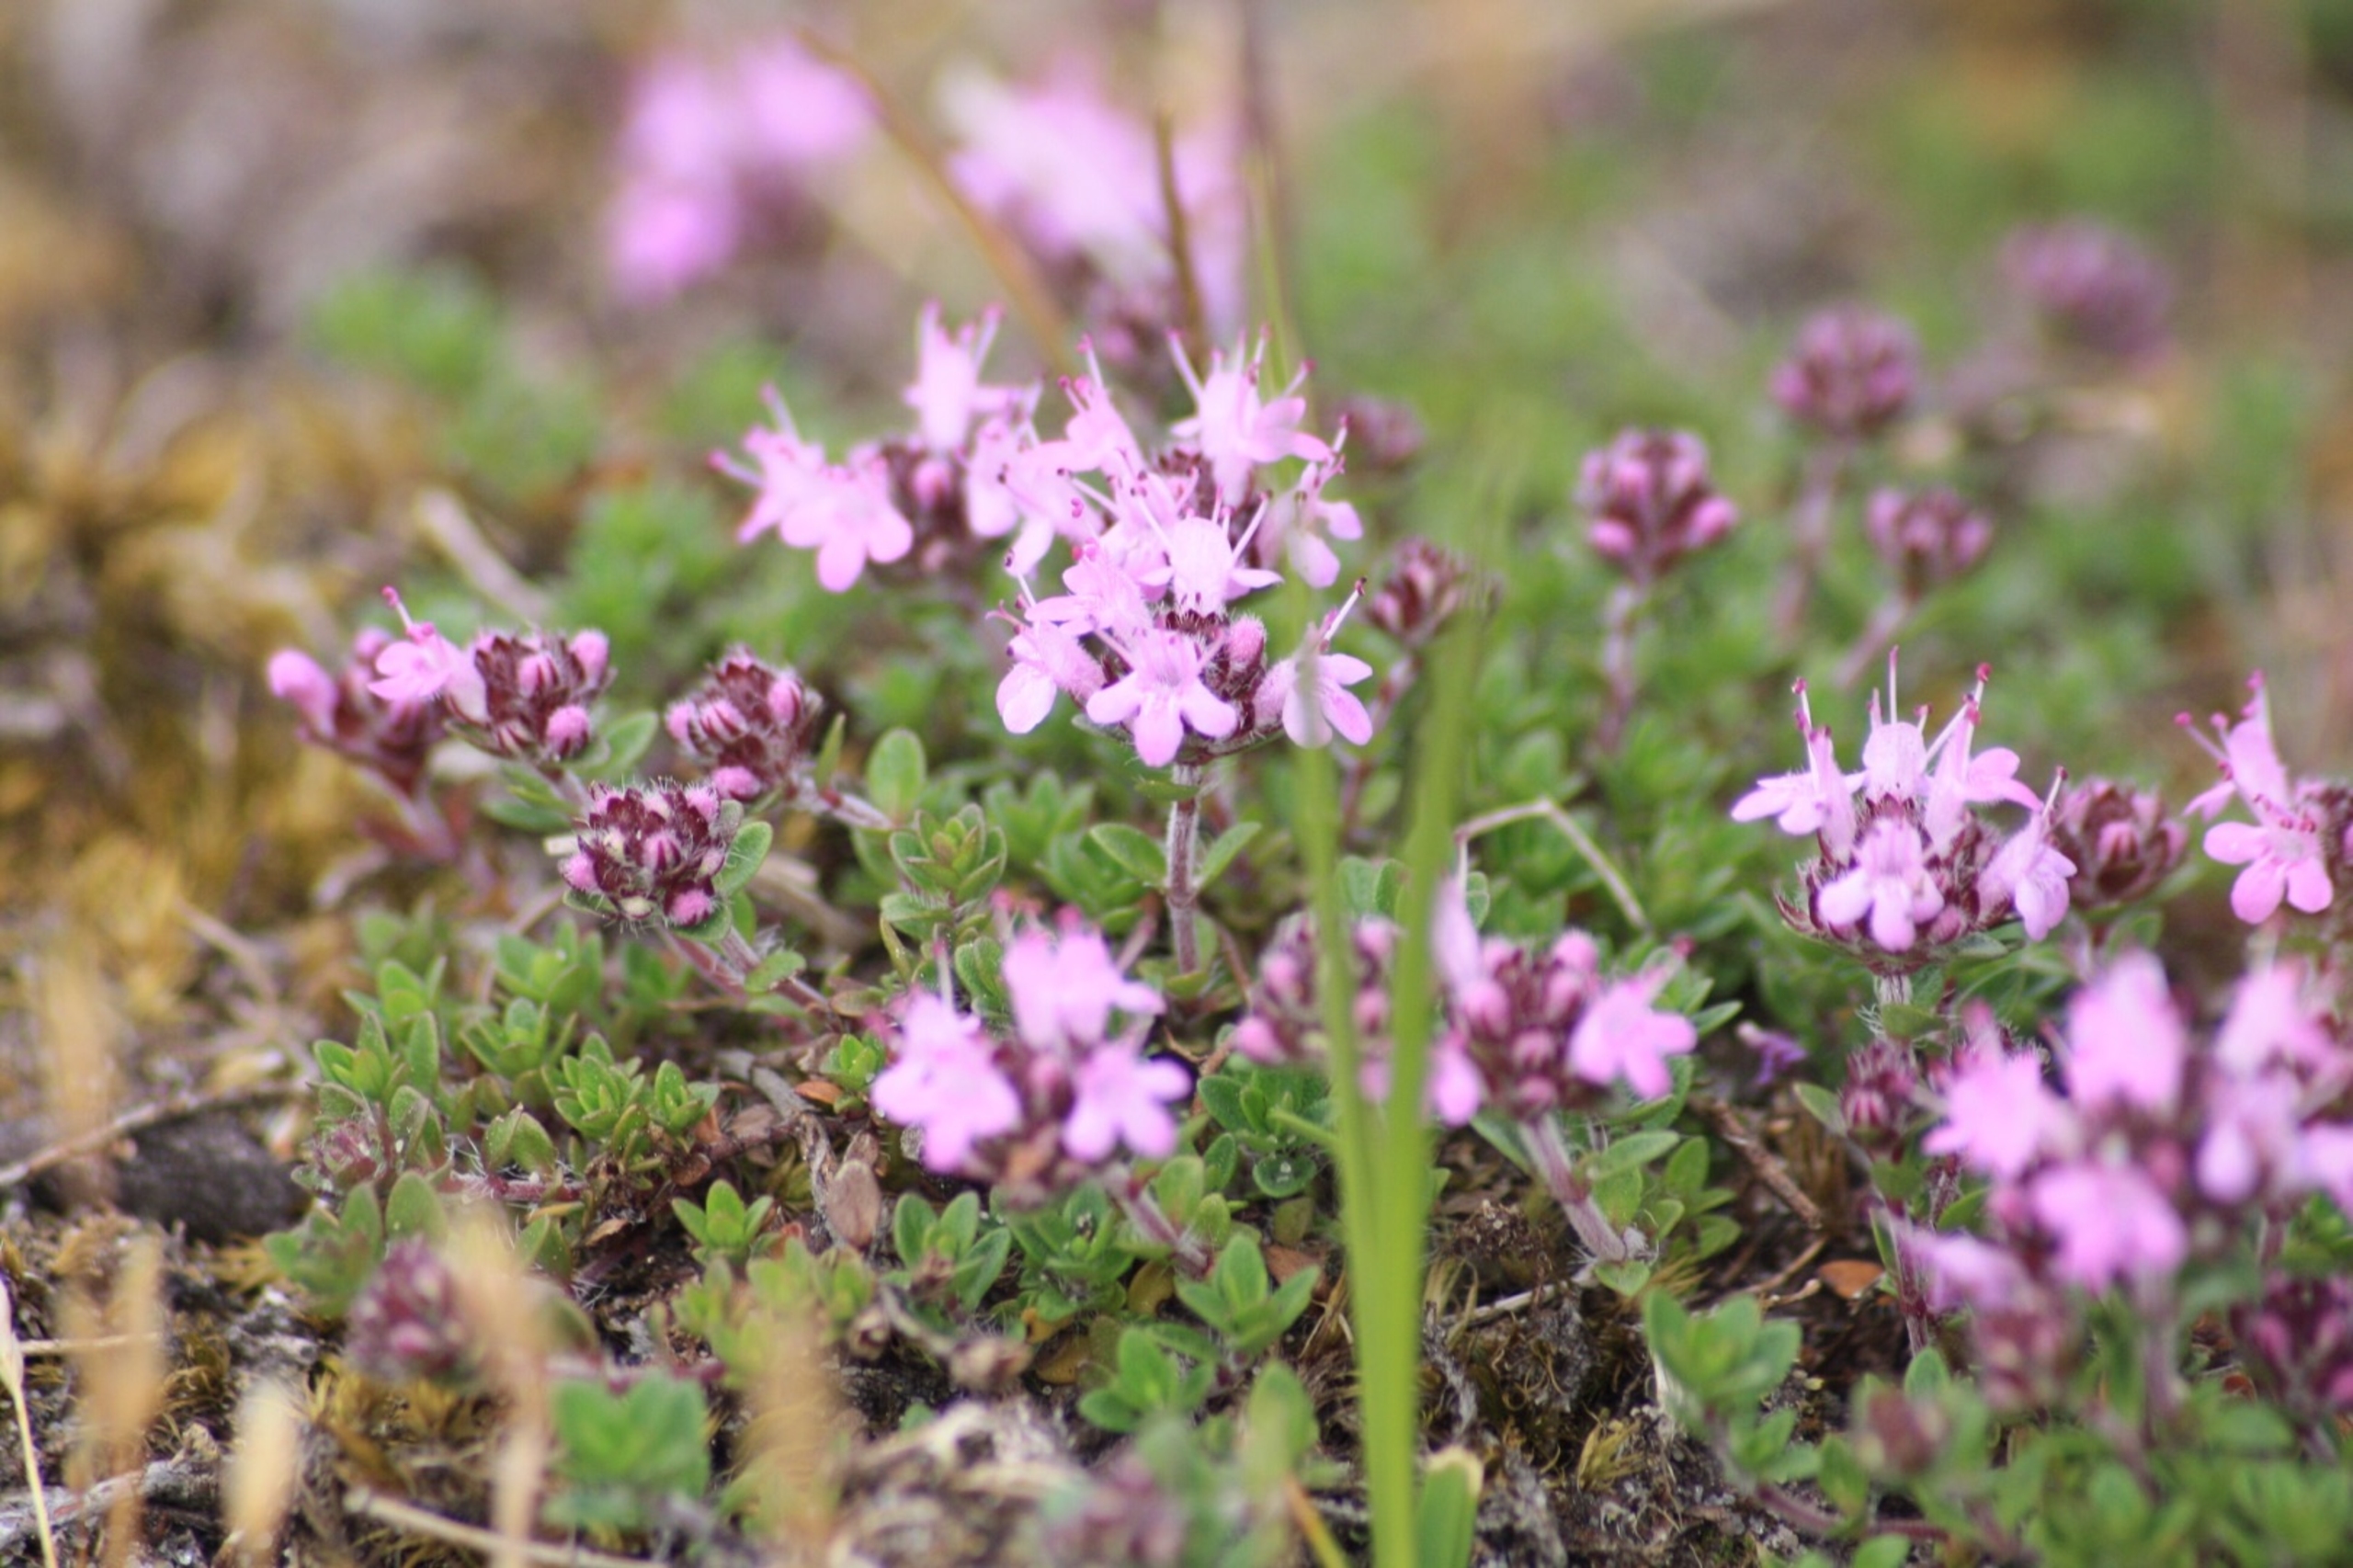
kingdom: Plantae
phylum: Tracheophyta
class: Magnoliopsida
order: Lamiales
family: Lamiaceae
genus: Thymus
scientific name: Thymus serpyllum
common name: Smalbladet timian
